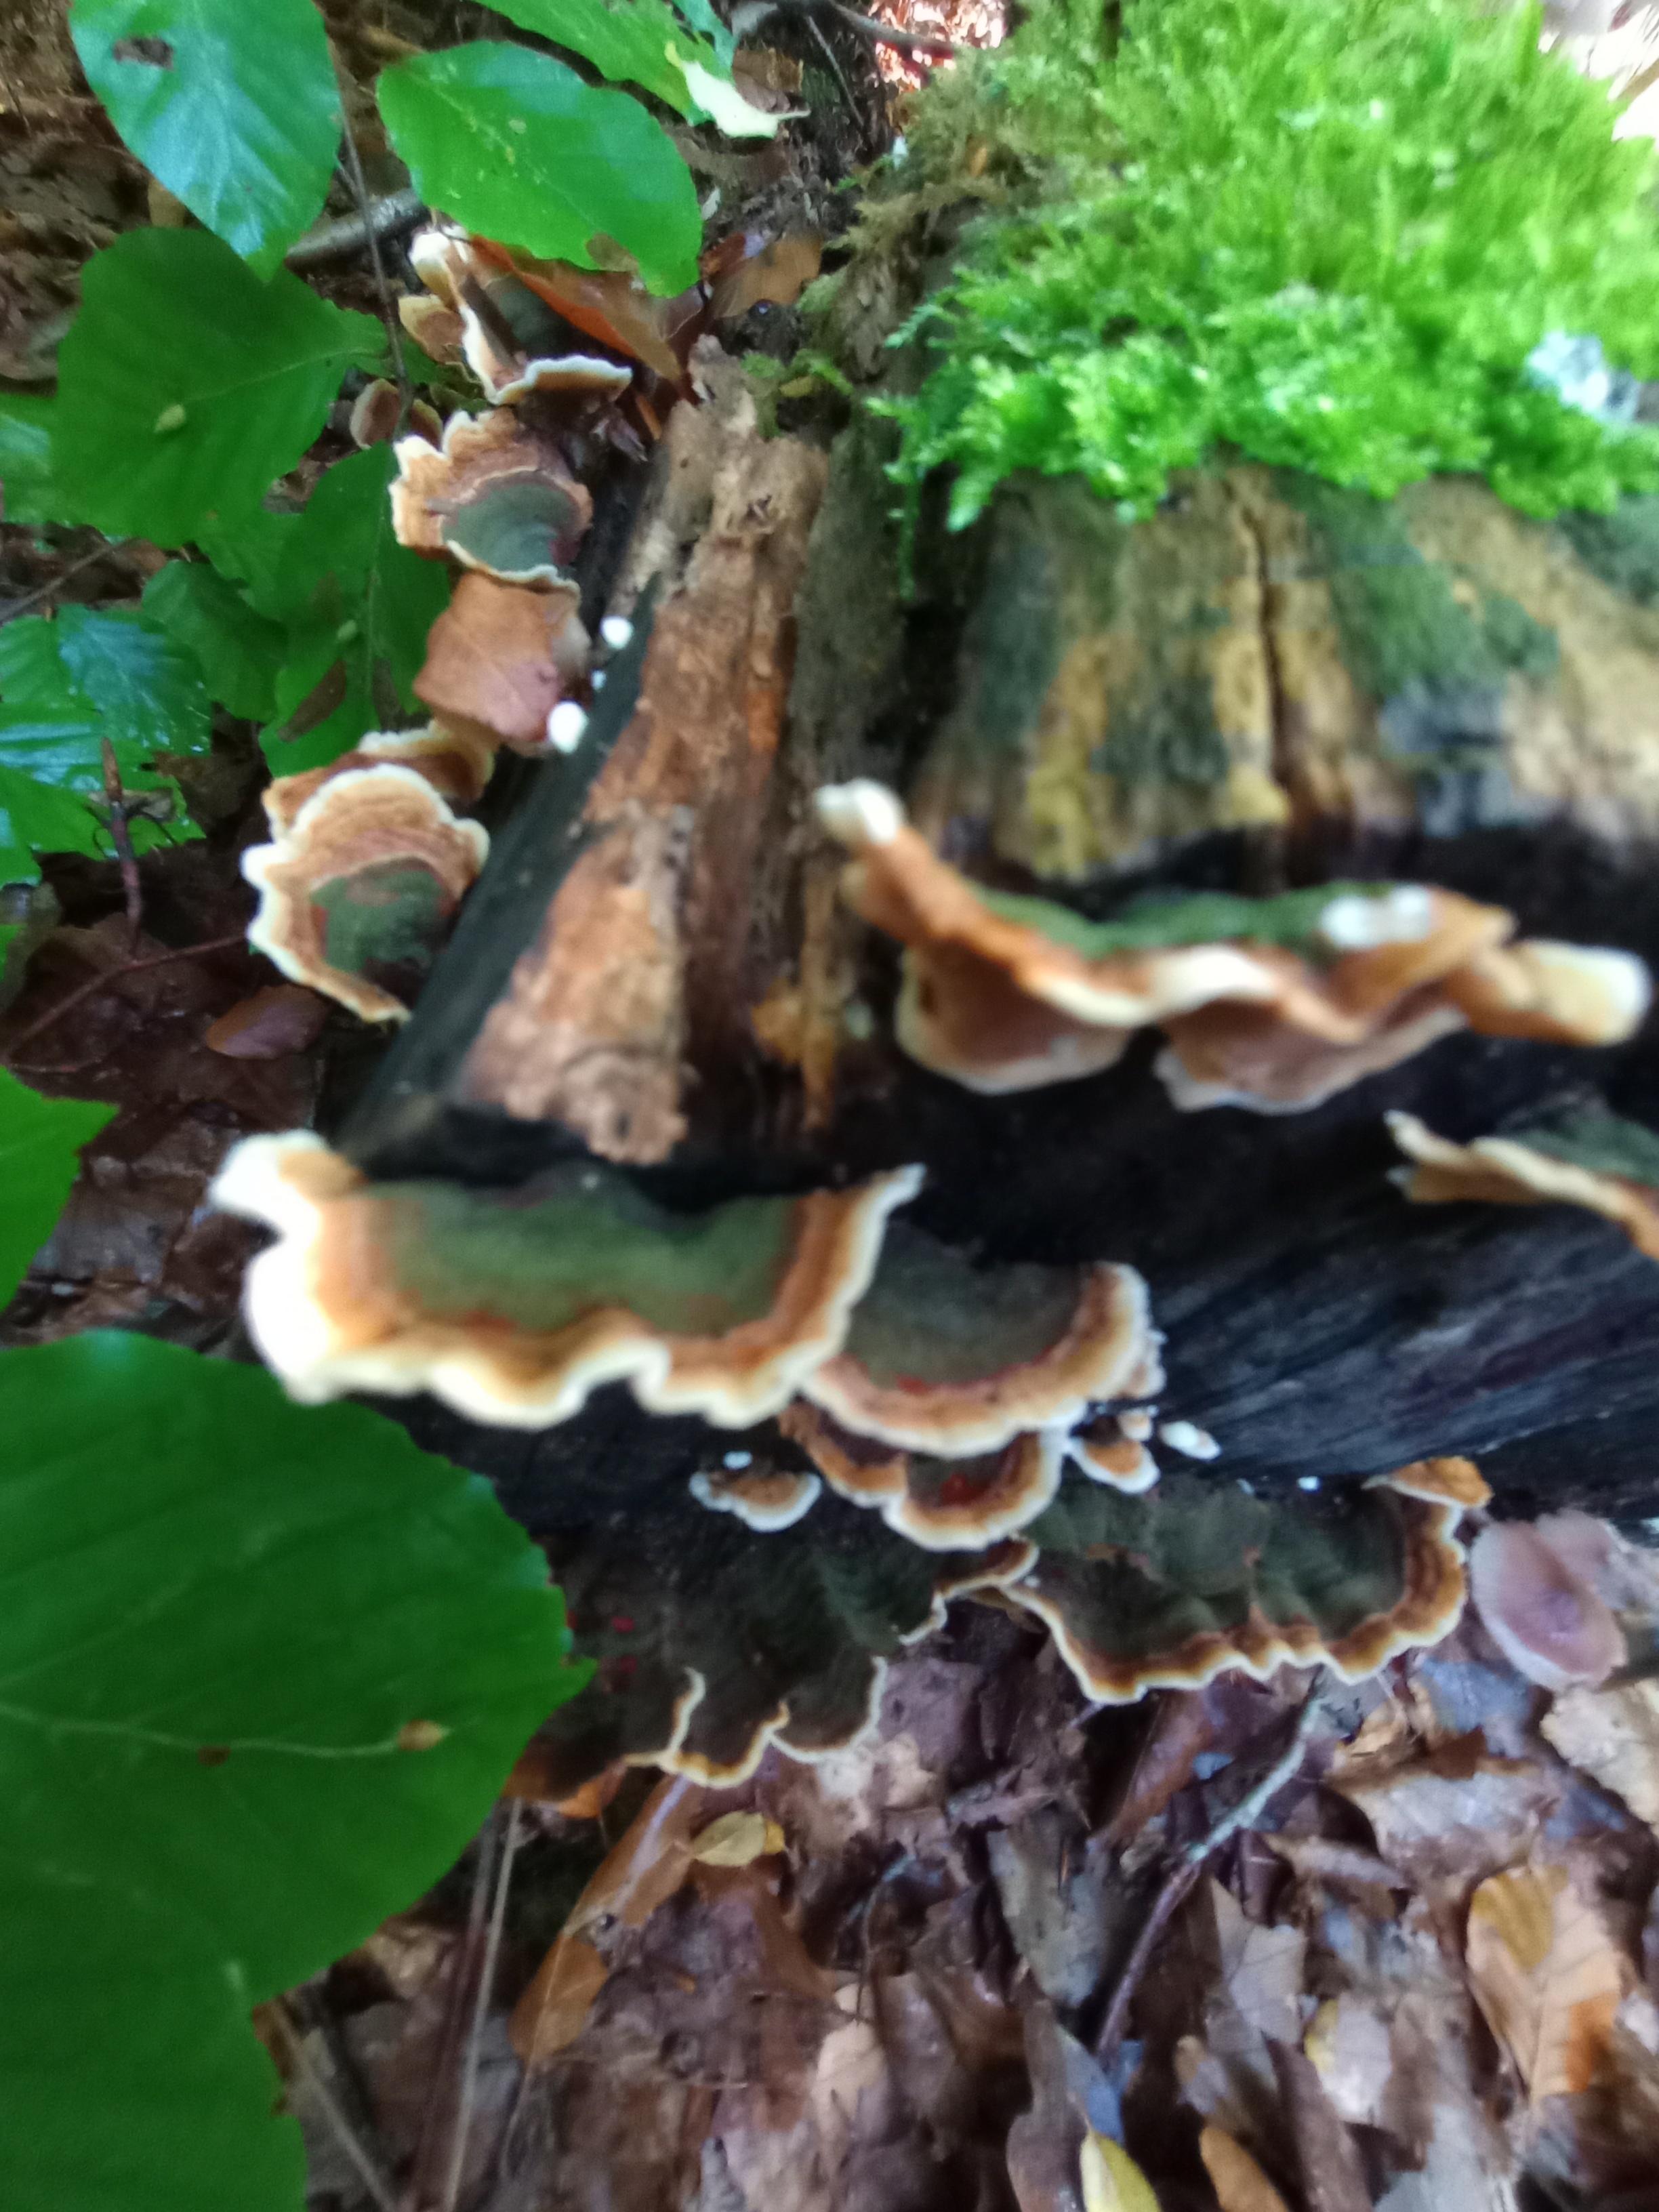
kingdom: Fungi
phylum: Basidiomycota
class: Agaricomycetes
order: Russulales
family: Stereaceae
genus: Stereum
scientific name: Stereum subtomentosum
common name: smuk lædersvamp
